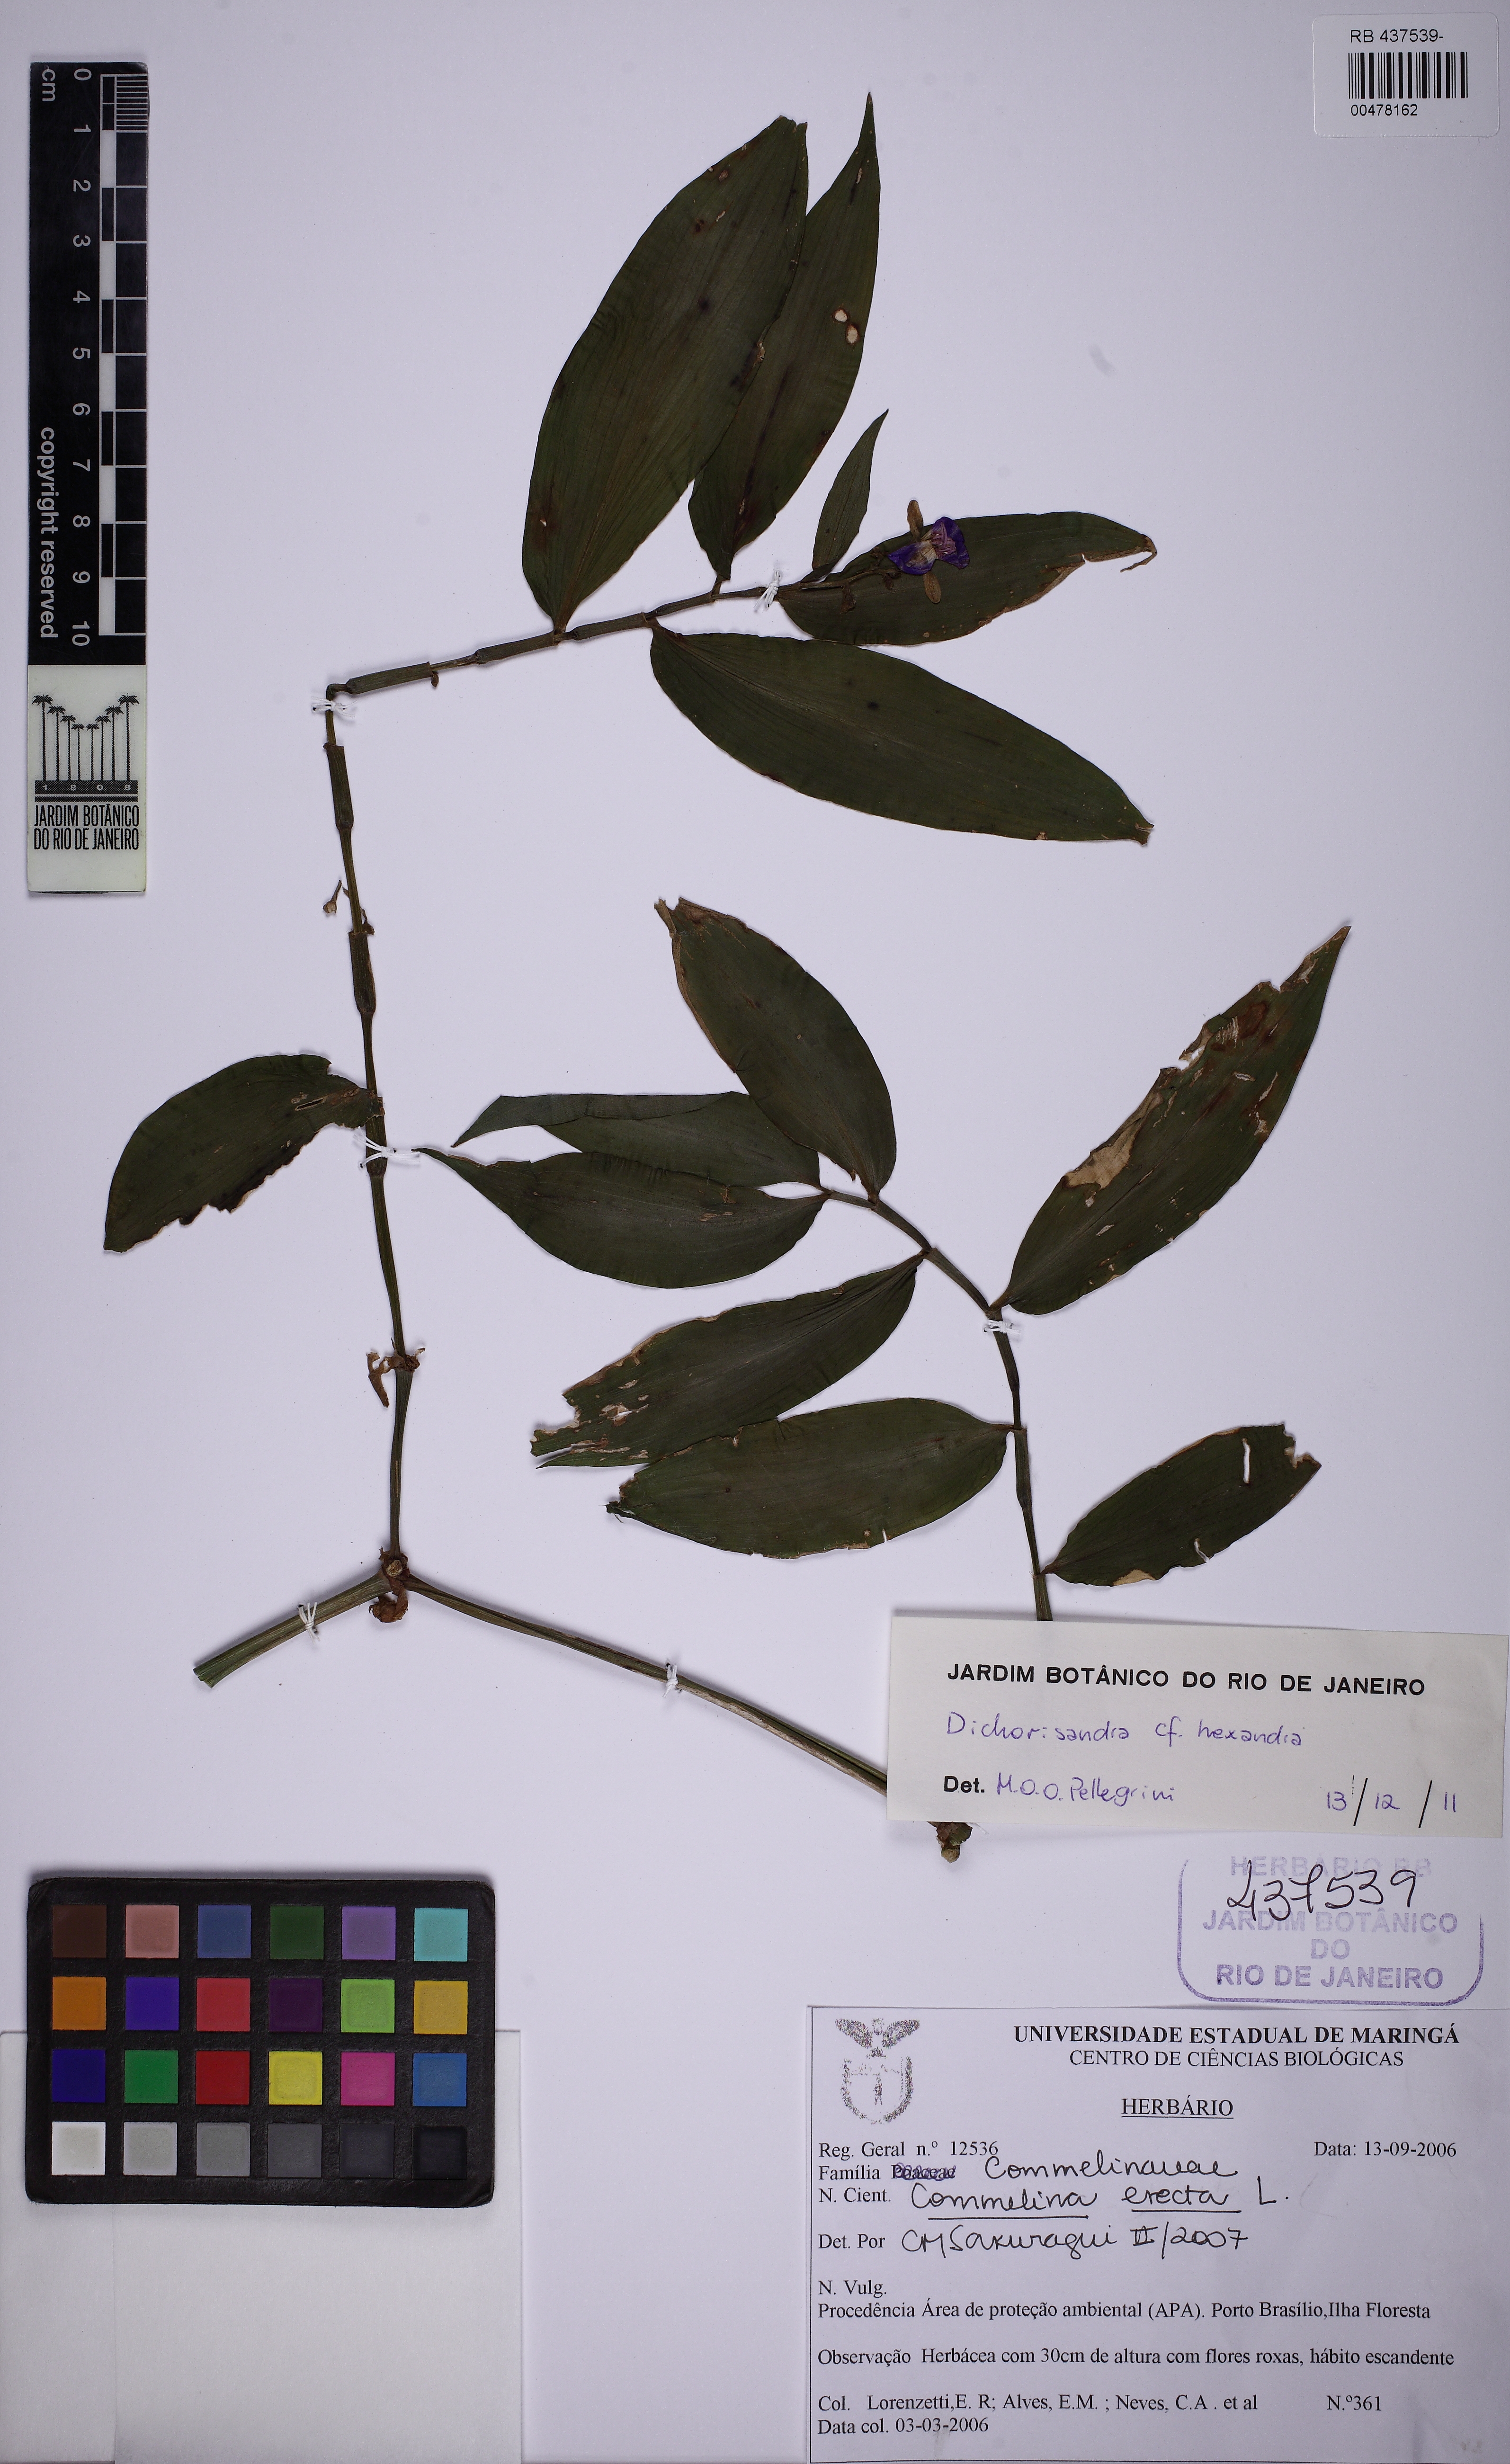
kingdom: Plantae
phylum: Tracheophyta
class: Liliopsida
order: Commelinales
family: Commelinaceae
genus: Dichorisandra
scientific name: Dichorisandra hexandra
